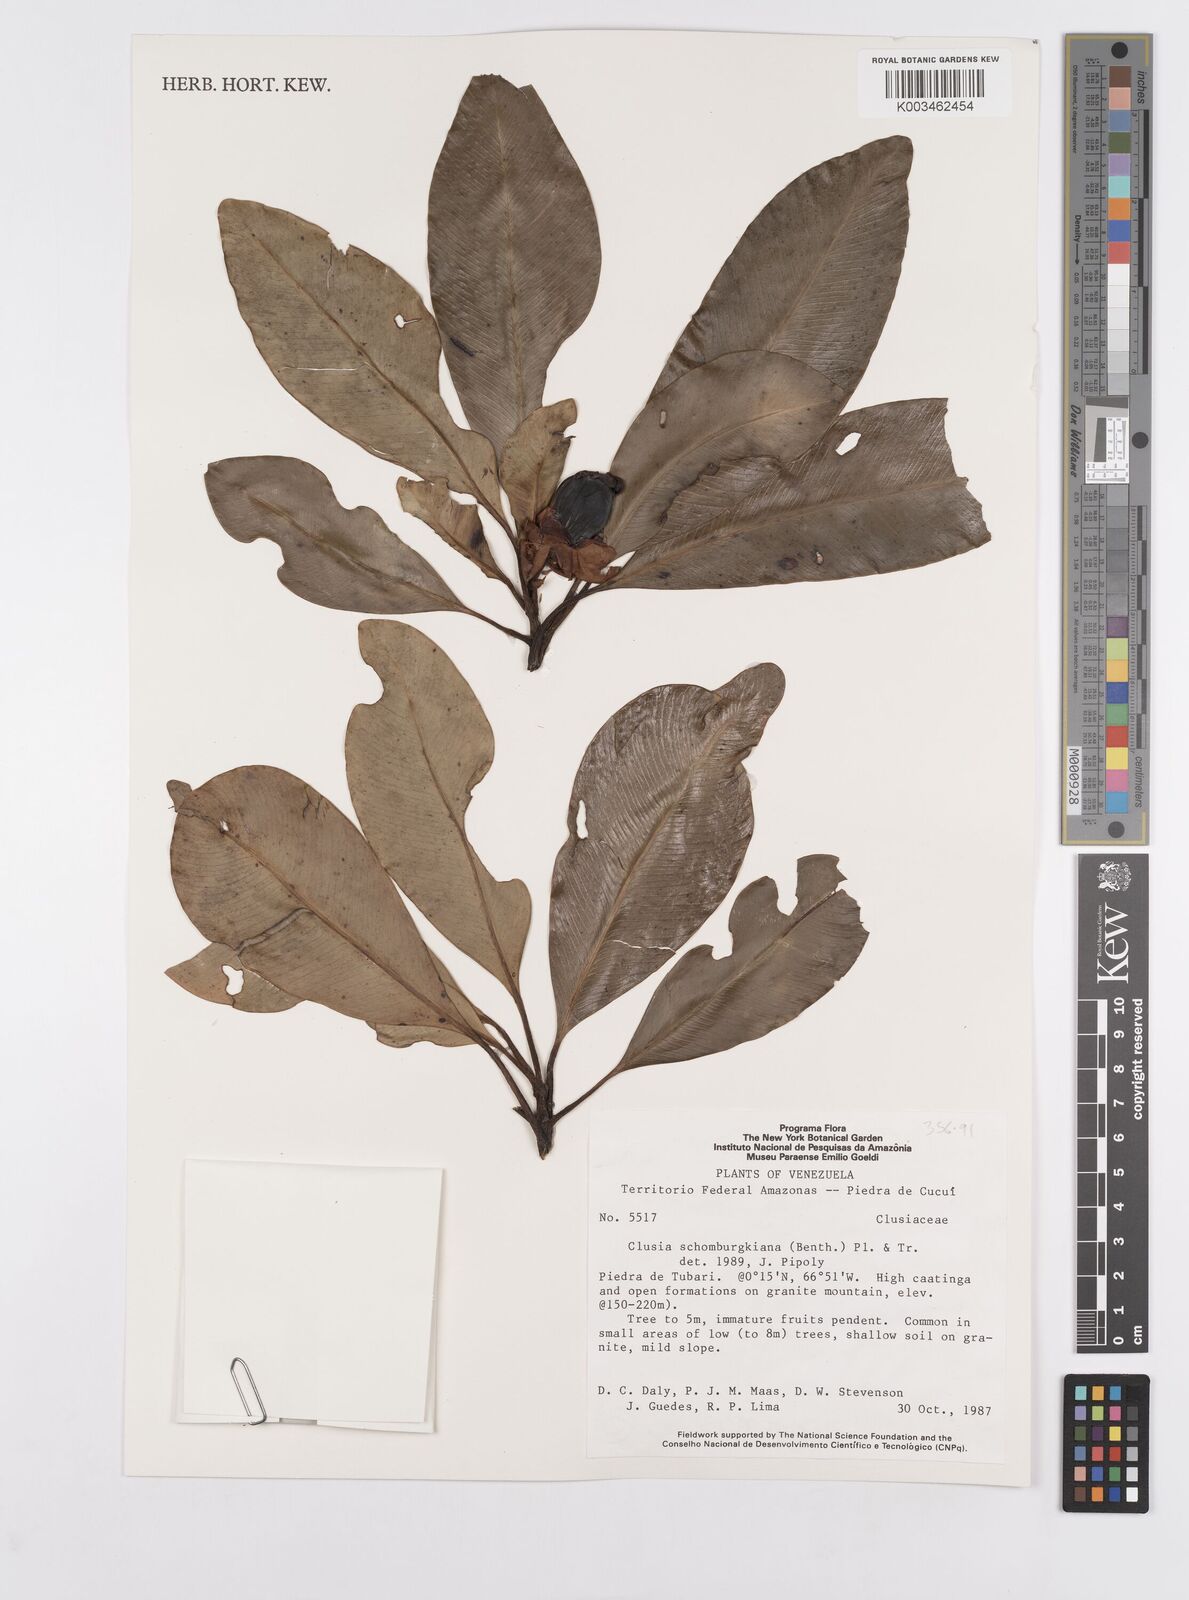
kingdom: Plantae
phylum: Tracheophyta
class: Magnoliopsida
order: Malpighiales
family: Clusiaceae
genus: Clusia
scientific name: Clusia schomburgkiana
